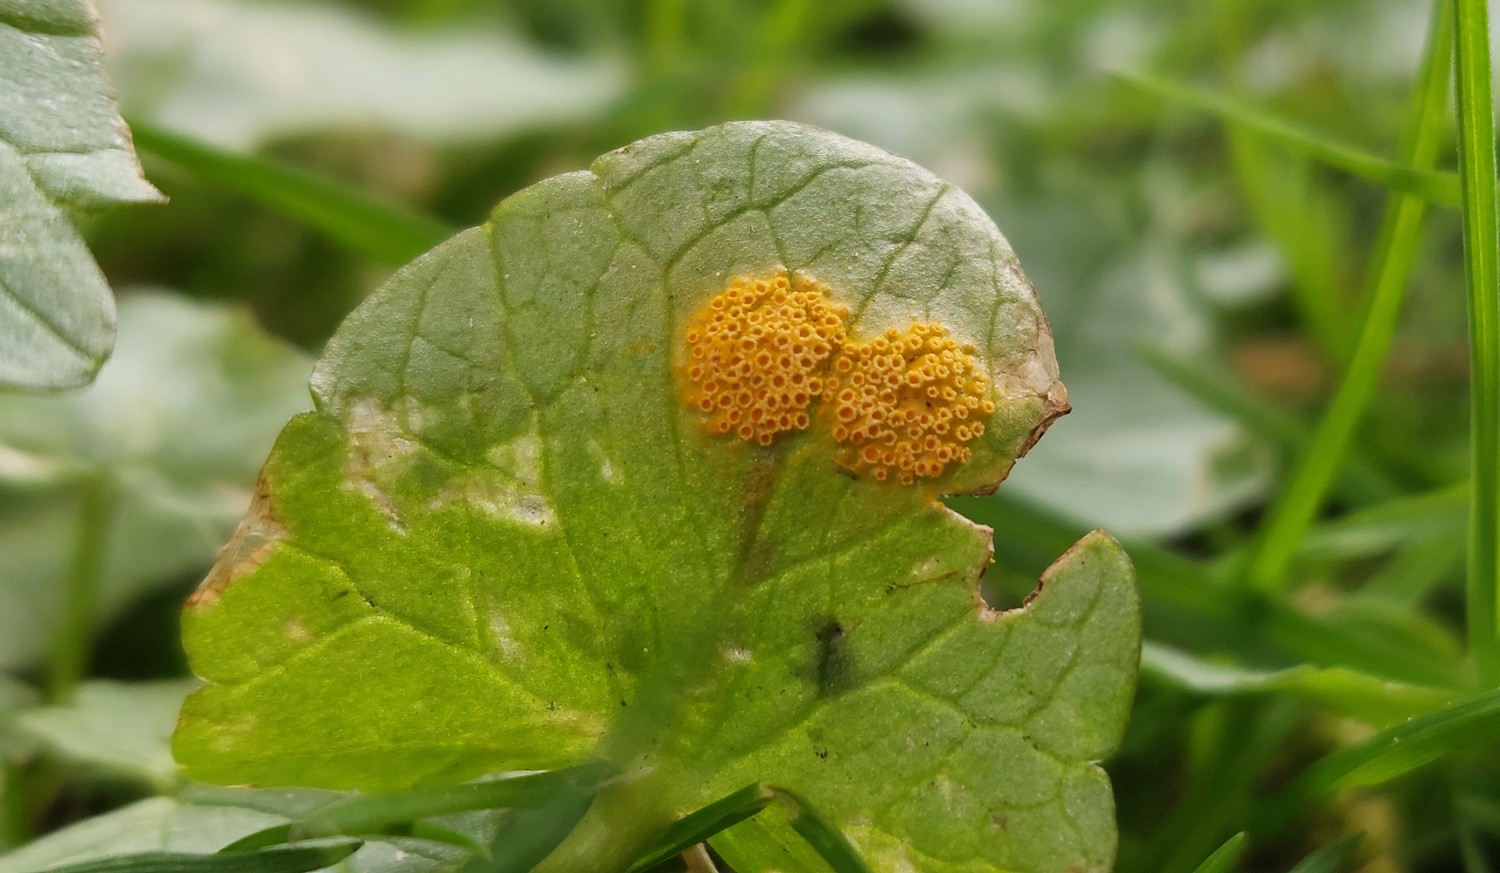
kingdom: Fungi
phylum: Basidiomycota
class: Pucciniomycetes
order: Pucciniales
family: Pucciniaceae
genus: Uromyces
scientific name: Uromyces dactylidis
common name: ranunkel-encellerust
